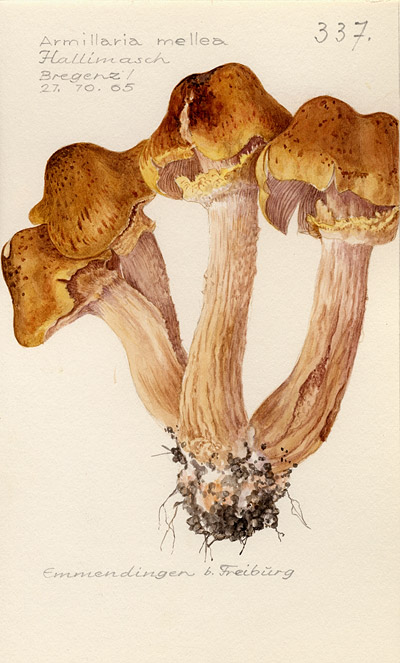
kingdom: Fungi
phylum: Basidiomycota
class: Agaricomycetes
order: Agaricales
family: Physalacriaceae
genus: Armillaria
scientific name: Armillaria mellea
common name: Honey fungus
